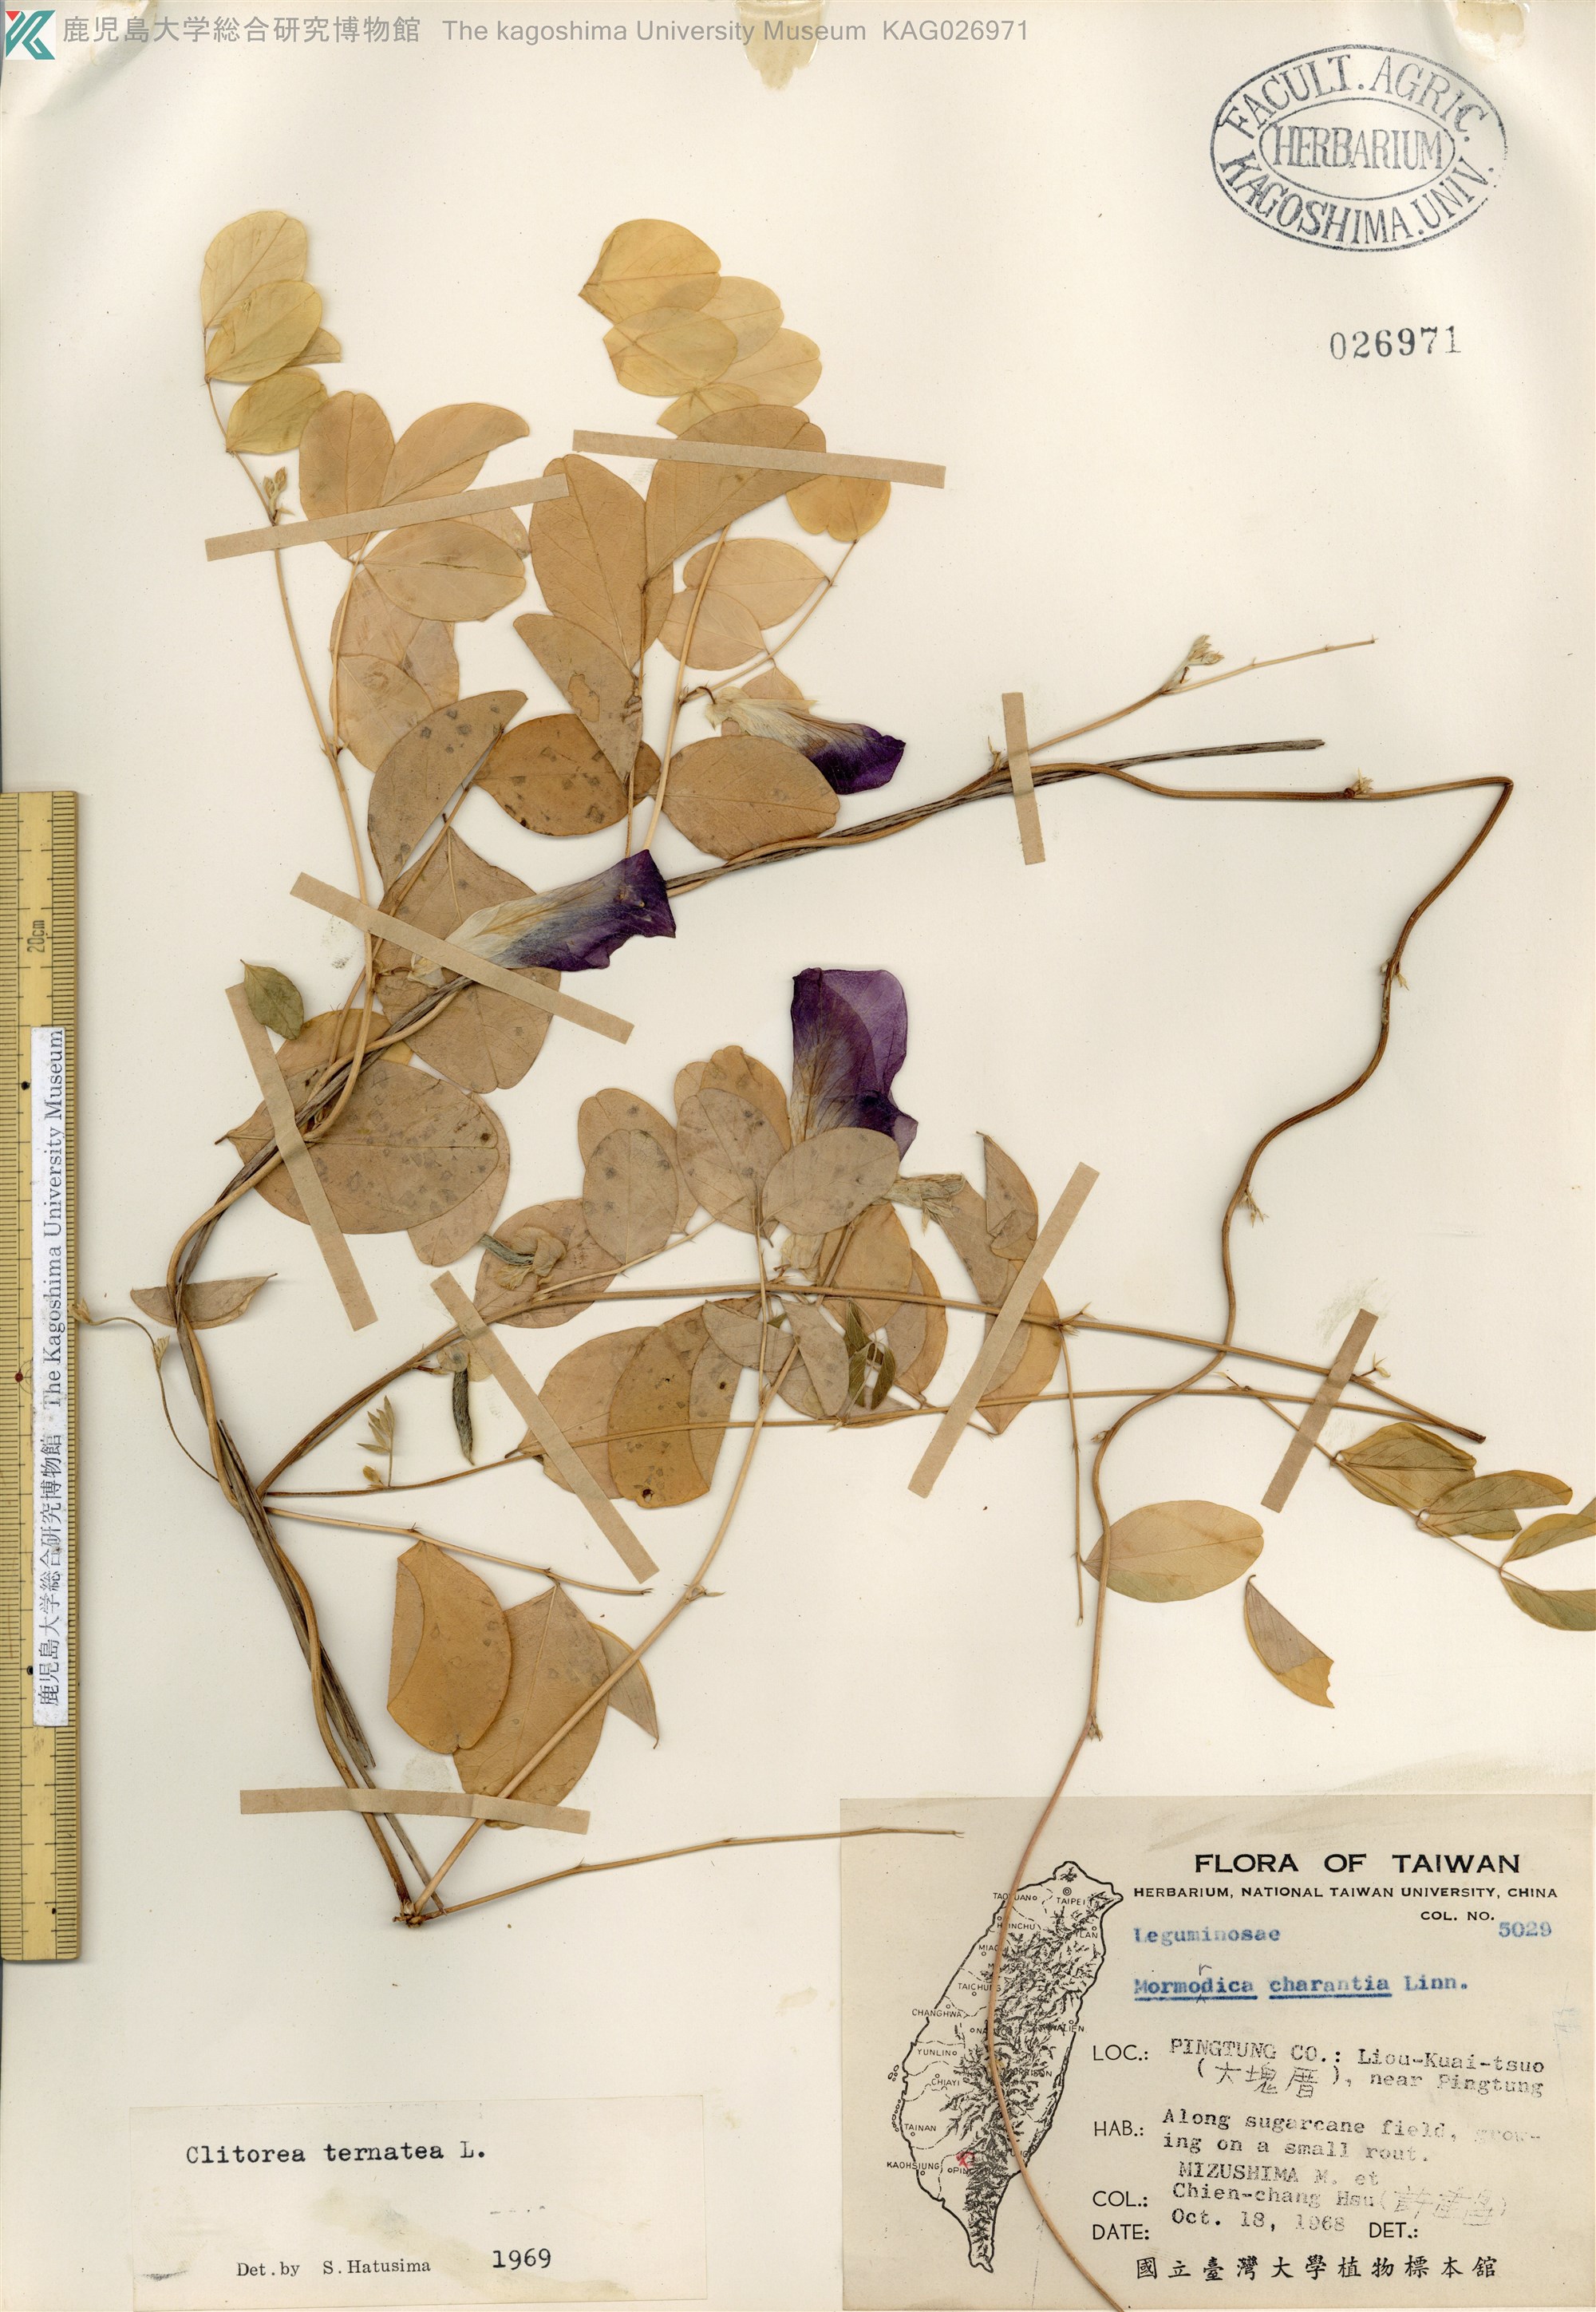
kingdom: Plantae
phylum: Tracheophyta
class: Magnoliopsida
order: Fabales
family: Fabaceae
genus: Clitoria
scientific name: Clitoria ternatea
